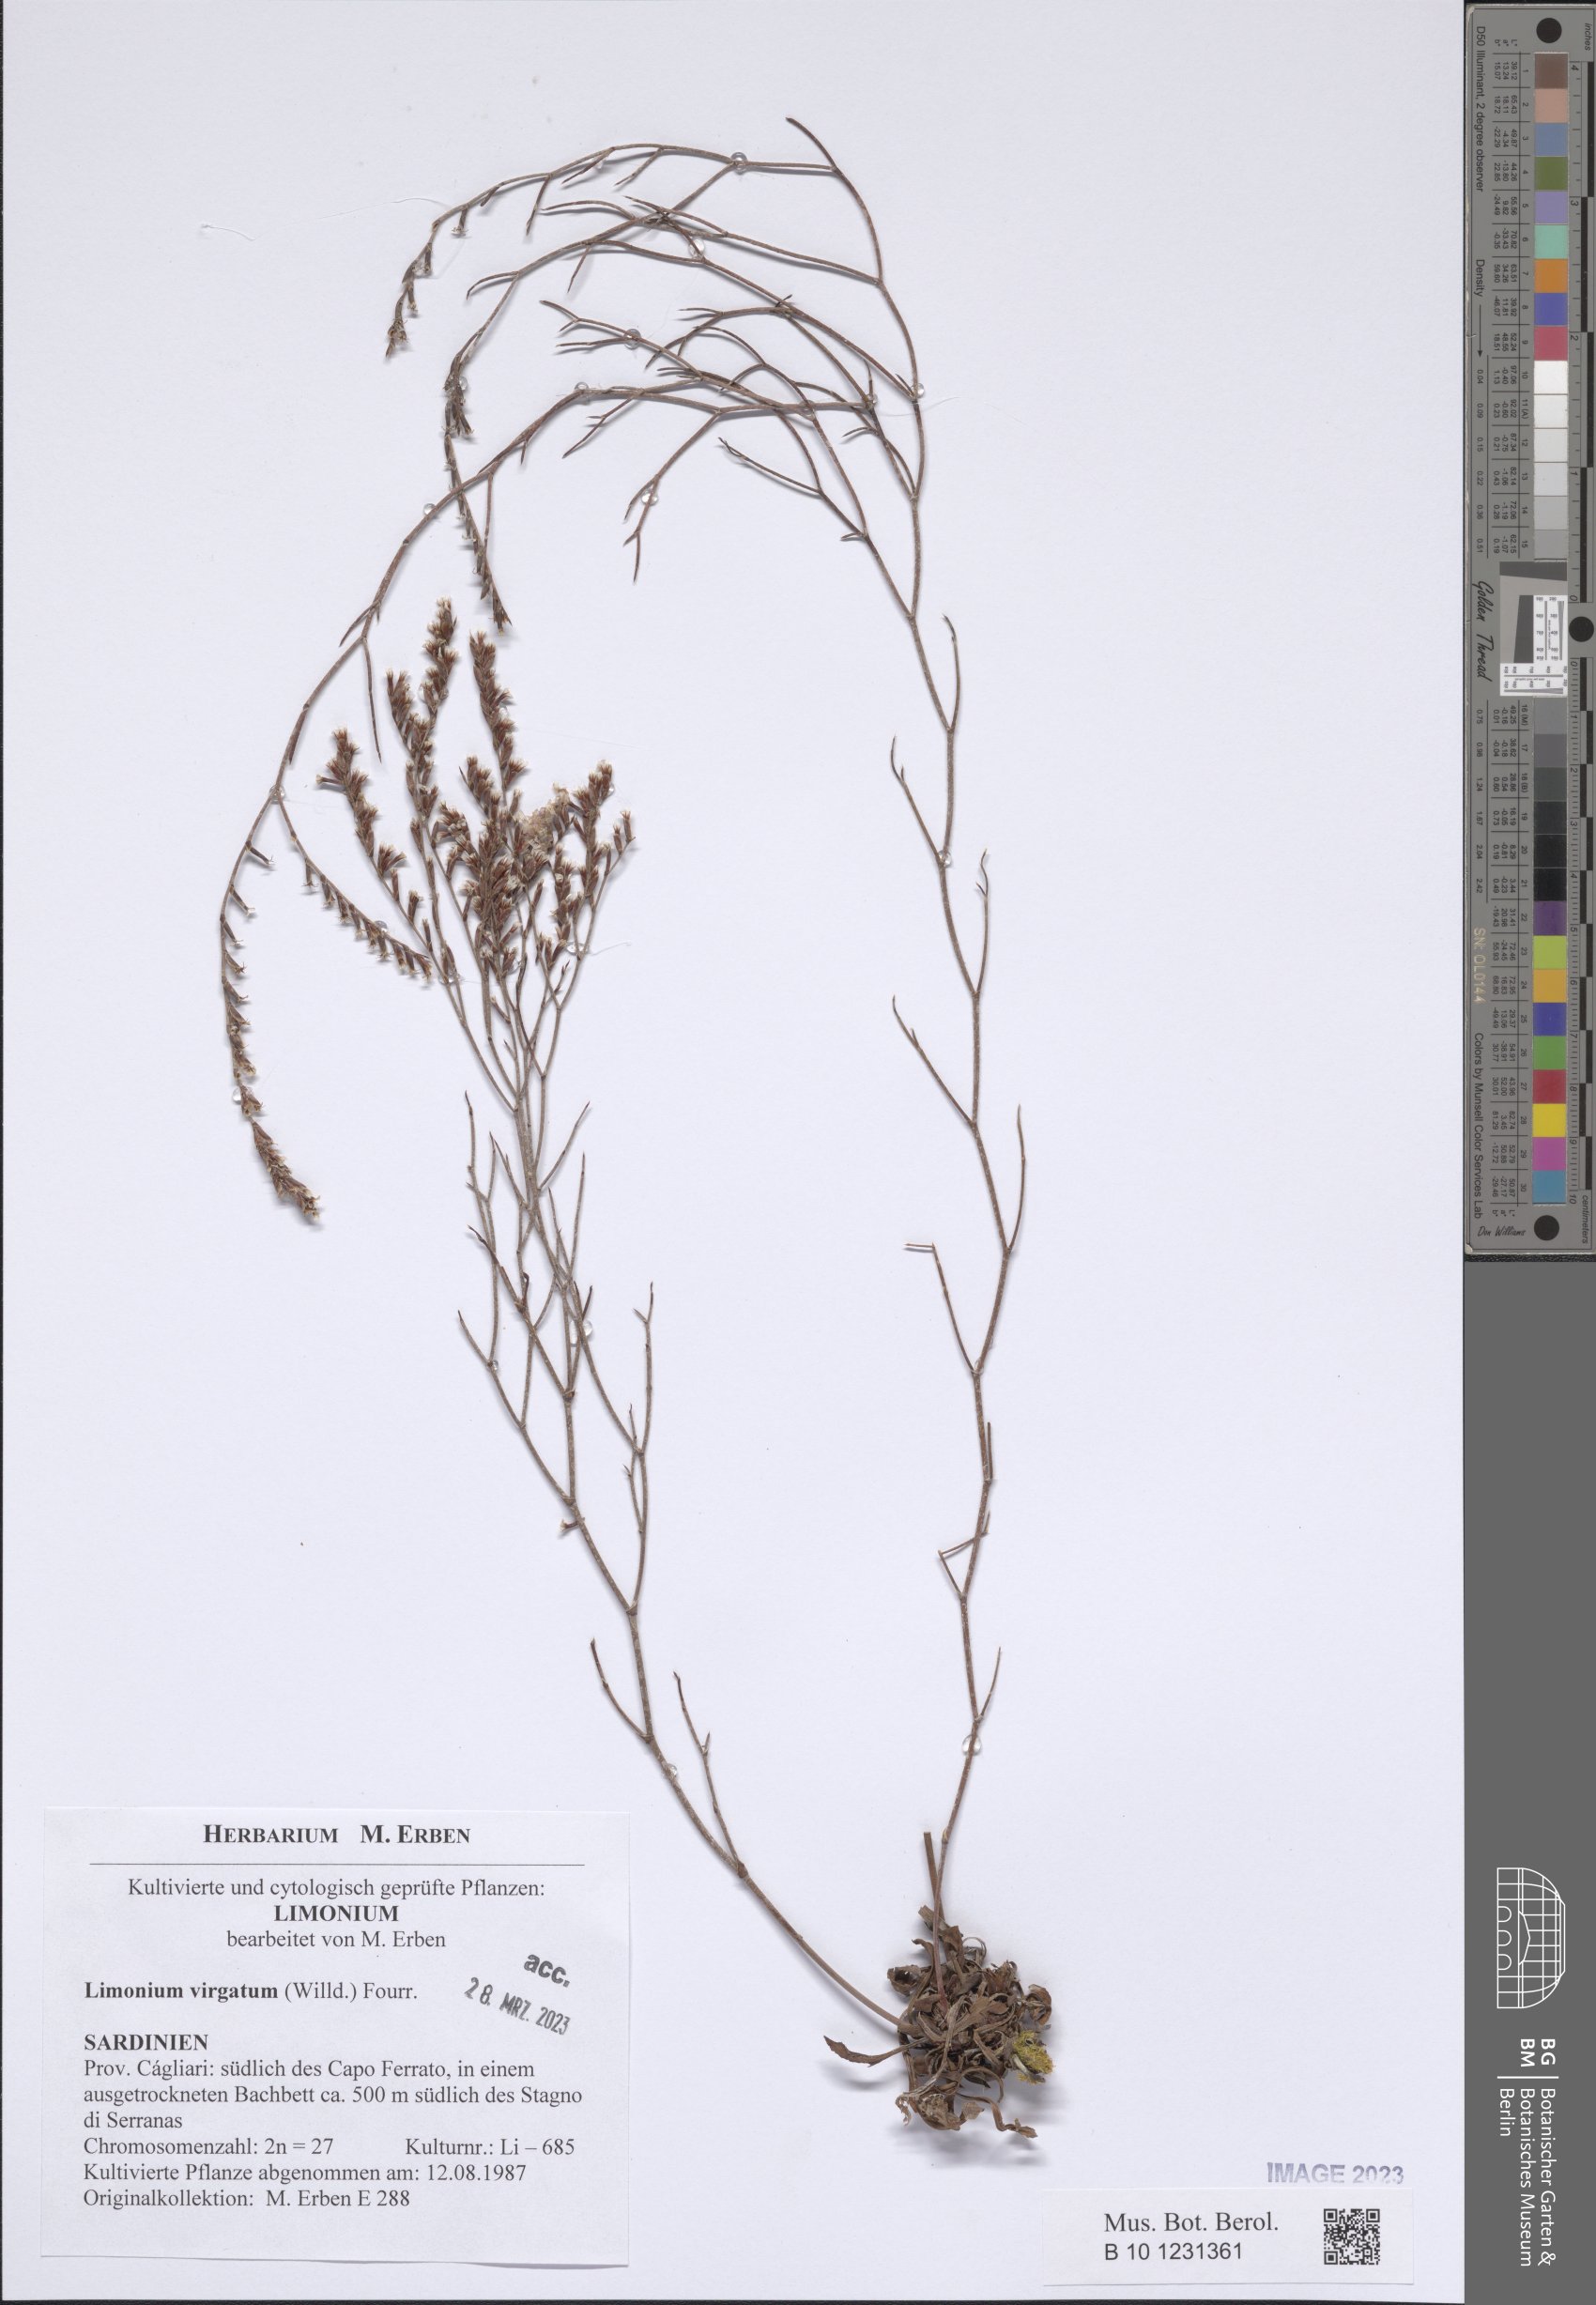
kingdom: Plantae
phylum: Tracheophyta
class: Magnoliopsida
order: Caryophyllales
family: Plumbaginaceae
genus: Limonium
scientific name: Limonium virgatum
